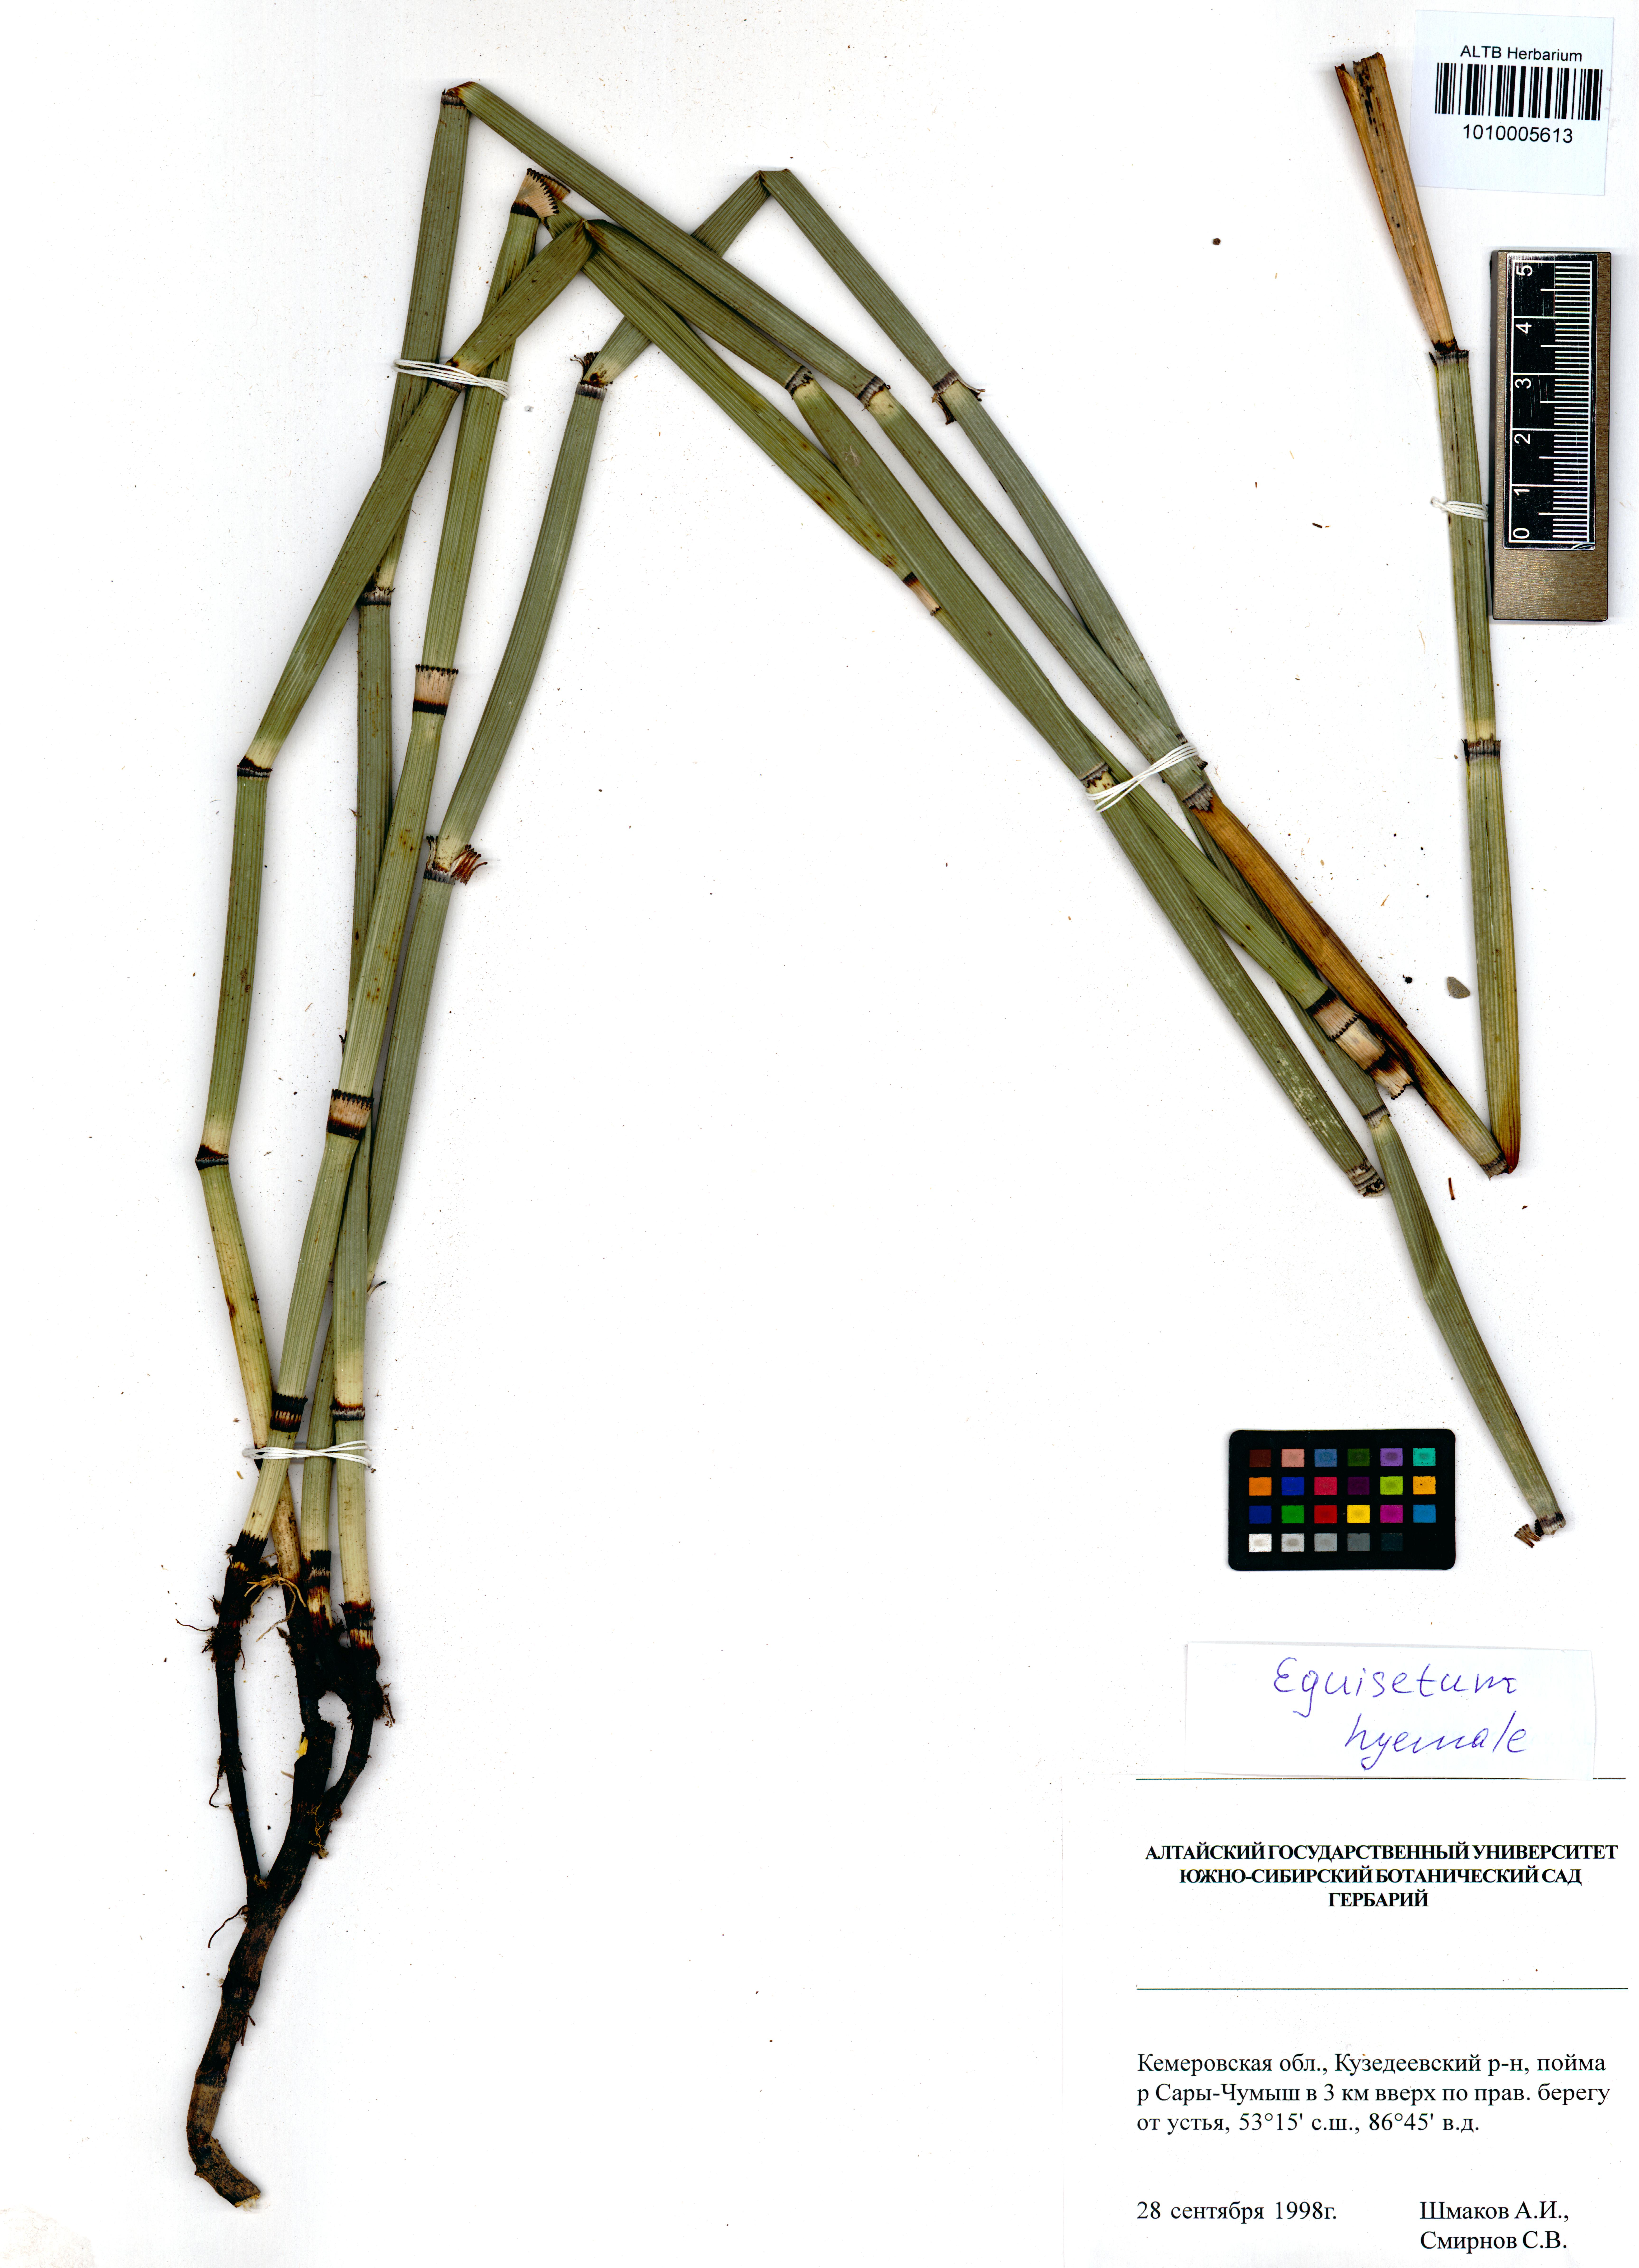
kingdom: Plantae
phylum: Tracheophyta
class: Polypodiopsida
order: Equisetales
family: Equisetaceae
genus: Equisetum
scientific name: Equisetum hyemale
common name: Rough horsetail
